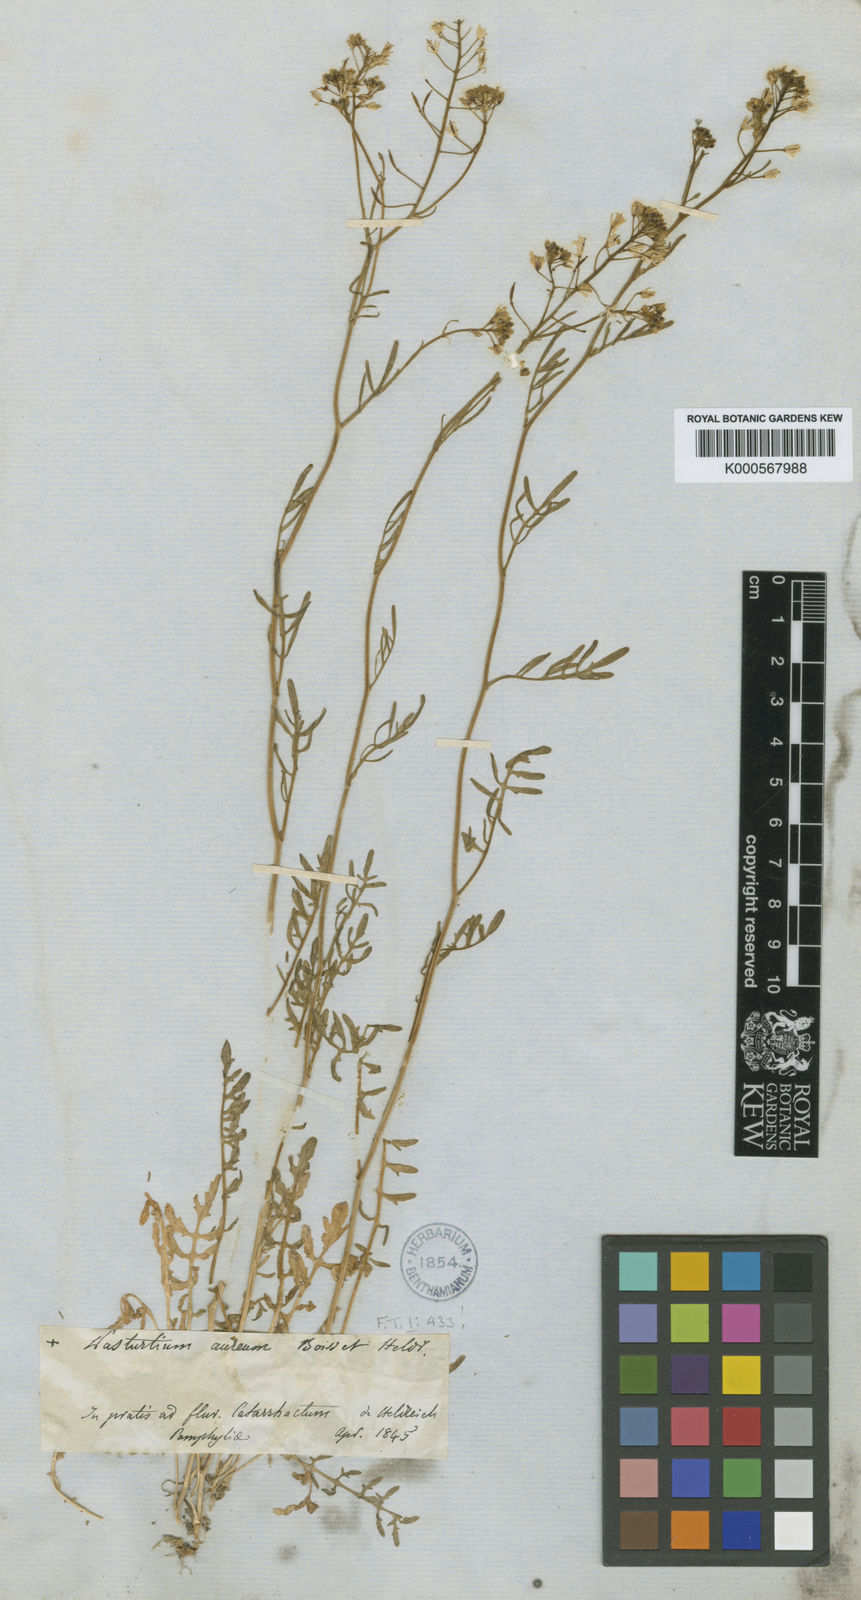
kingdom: Plantae
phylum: Tracheophyta
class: Magnoliopsida
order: Brassicales
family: Brassicaceae
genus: Rorippa
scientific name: Rorippa aurea
